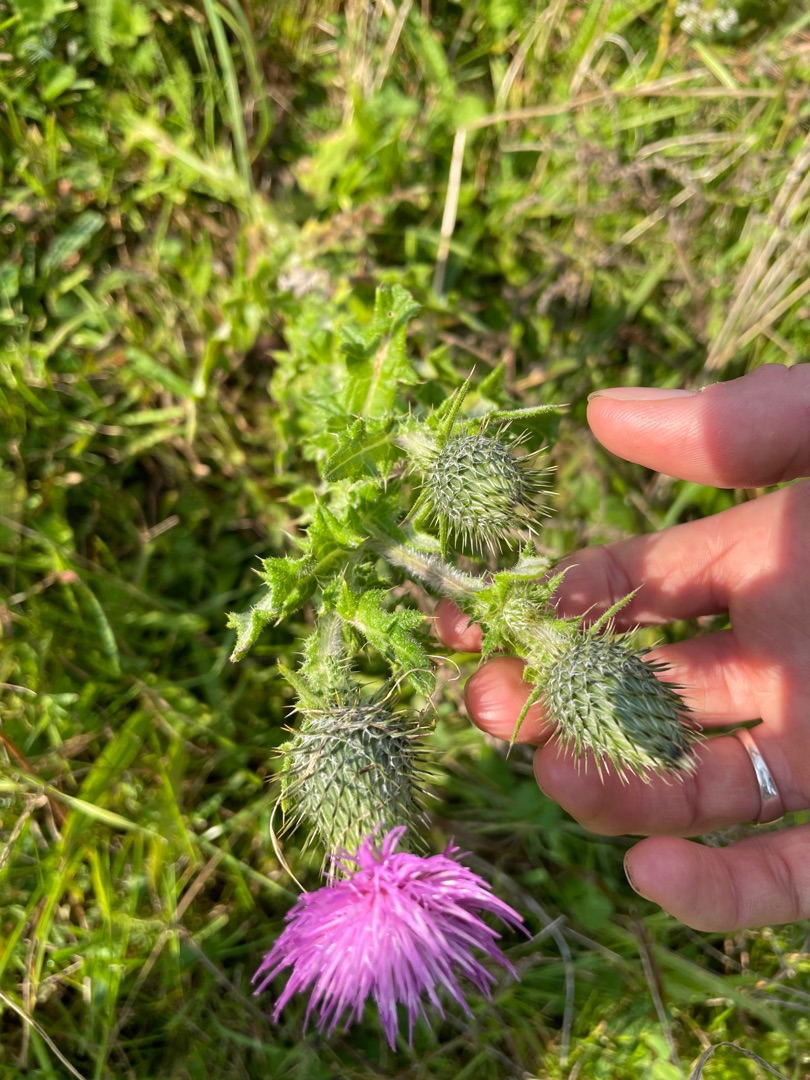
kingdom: Plantae
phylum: Tracheophyta
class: Magnoliopsida
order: Asterales
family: Asteraceae
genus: Cirsium
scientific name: Cirsium vulgare
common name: Horse-tidsel
